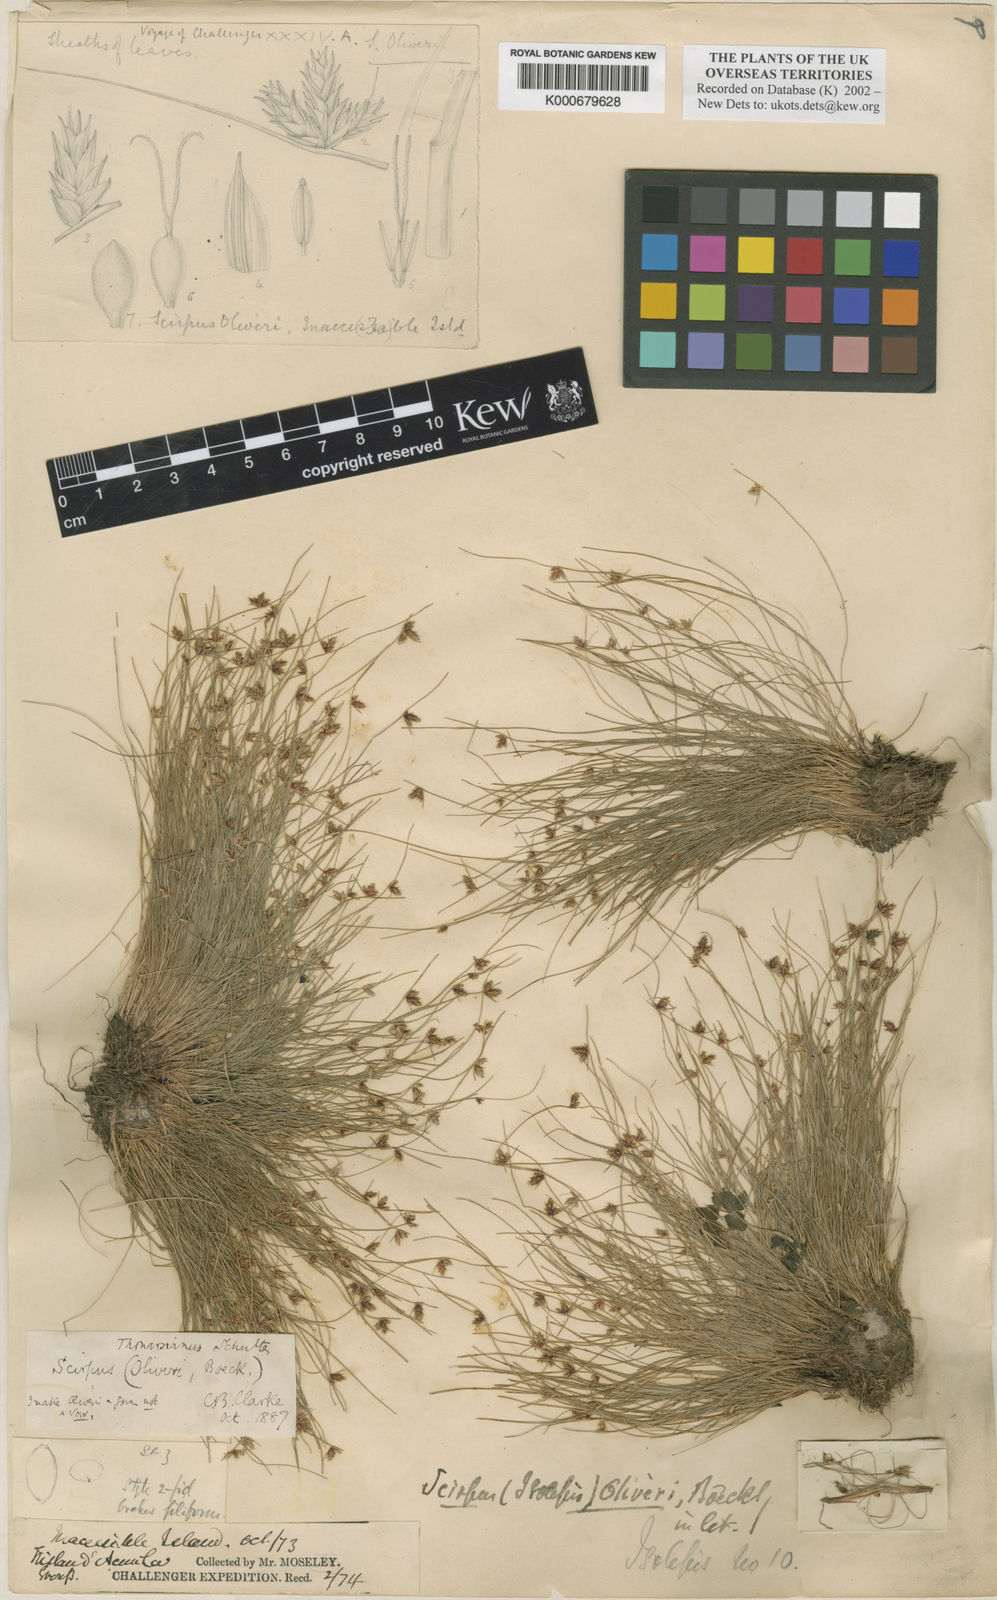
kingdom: Plantae
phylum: Tracheophyta
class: Liliopsida
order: Poales
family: Cyperaceae
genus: Isolepis
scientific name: Isolepis bicolor
